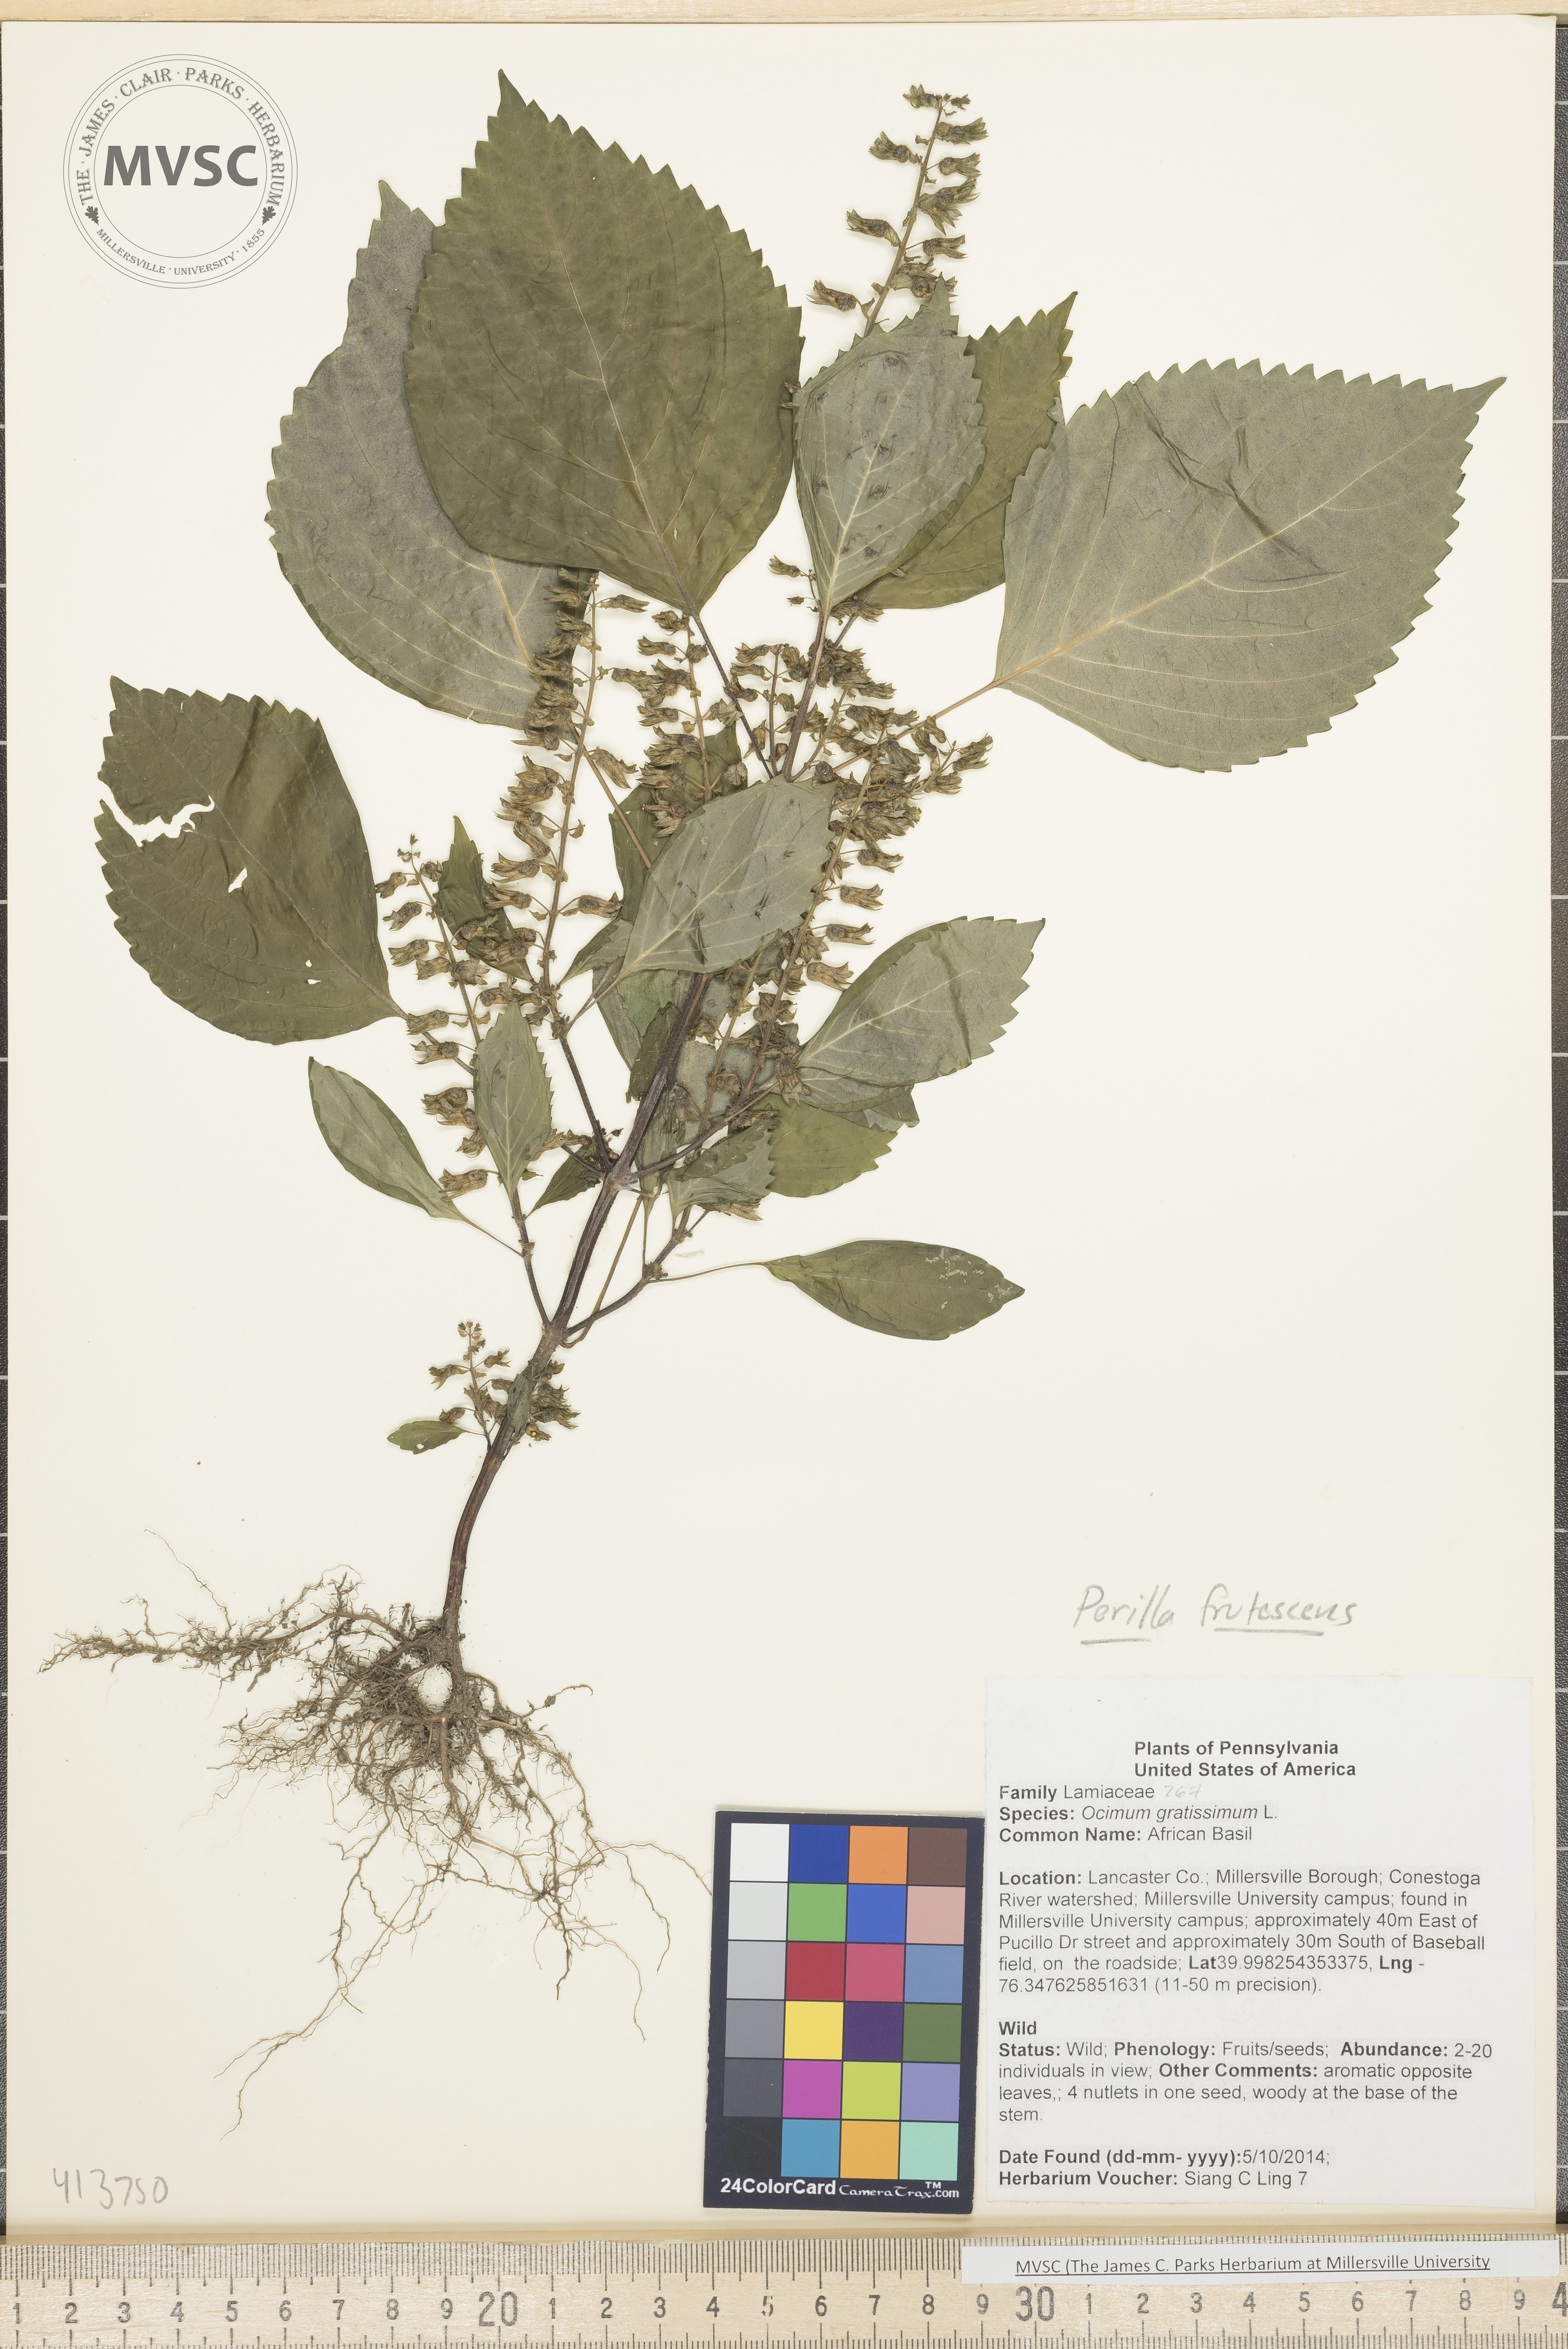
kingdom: Plantae
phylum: Tracheophyta
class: Magnoliopsida
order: Lamiales
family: Lamiaceae
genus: Perilla
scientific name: Perilla frutescens
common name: Perilla
